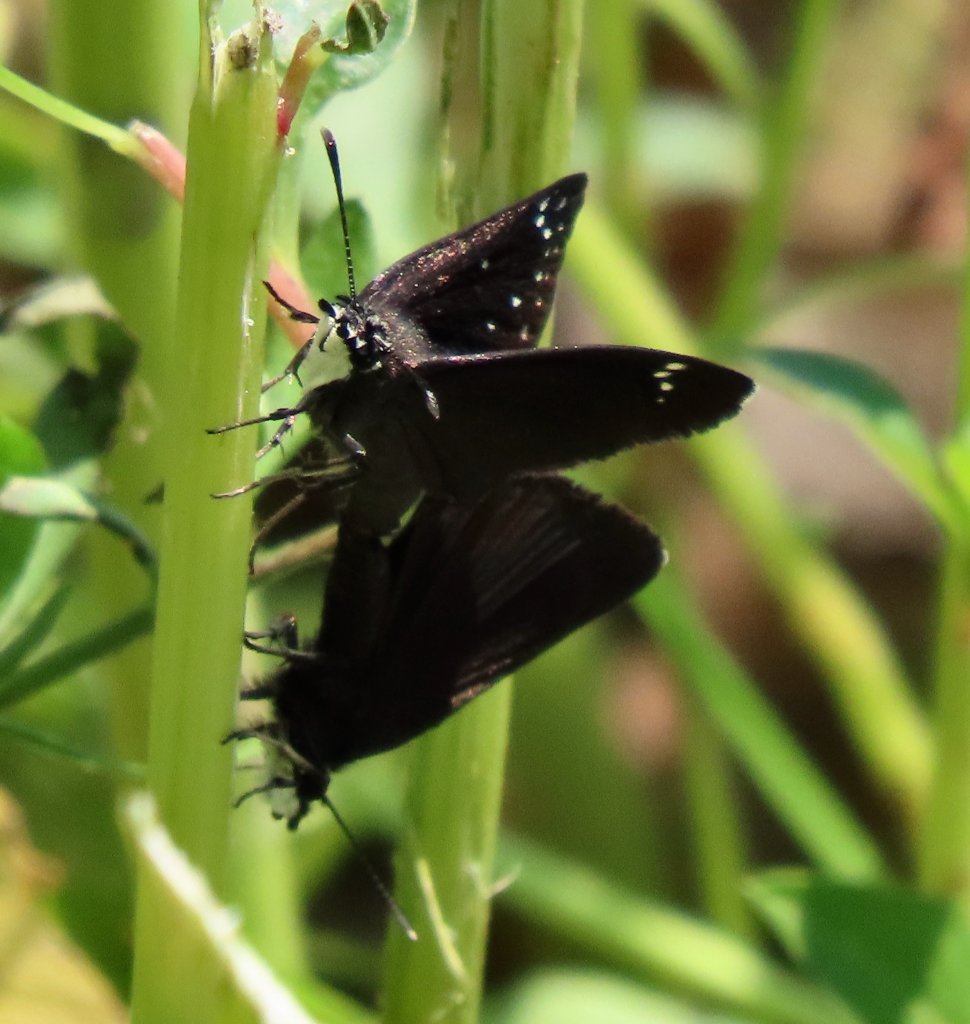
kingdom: Animalia
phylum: Arthropoda
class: Insecta
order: Lepidoptera
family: Hesperiidae
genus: Pholisora
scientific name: Pholisora catullus
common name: Common Sootywing
